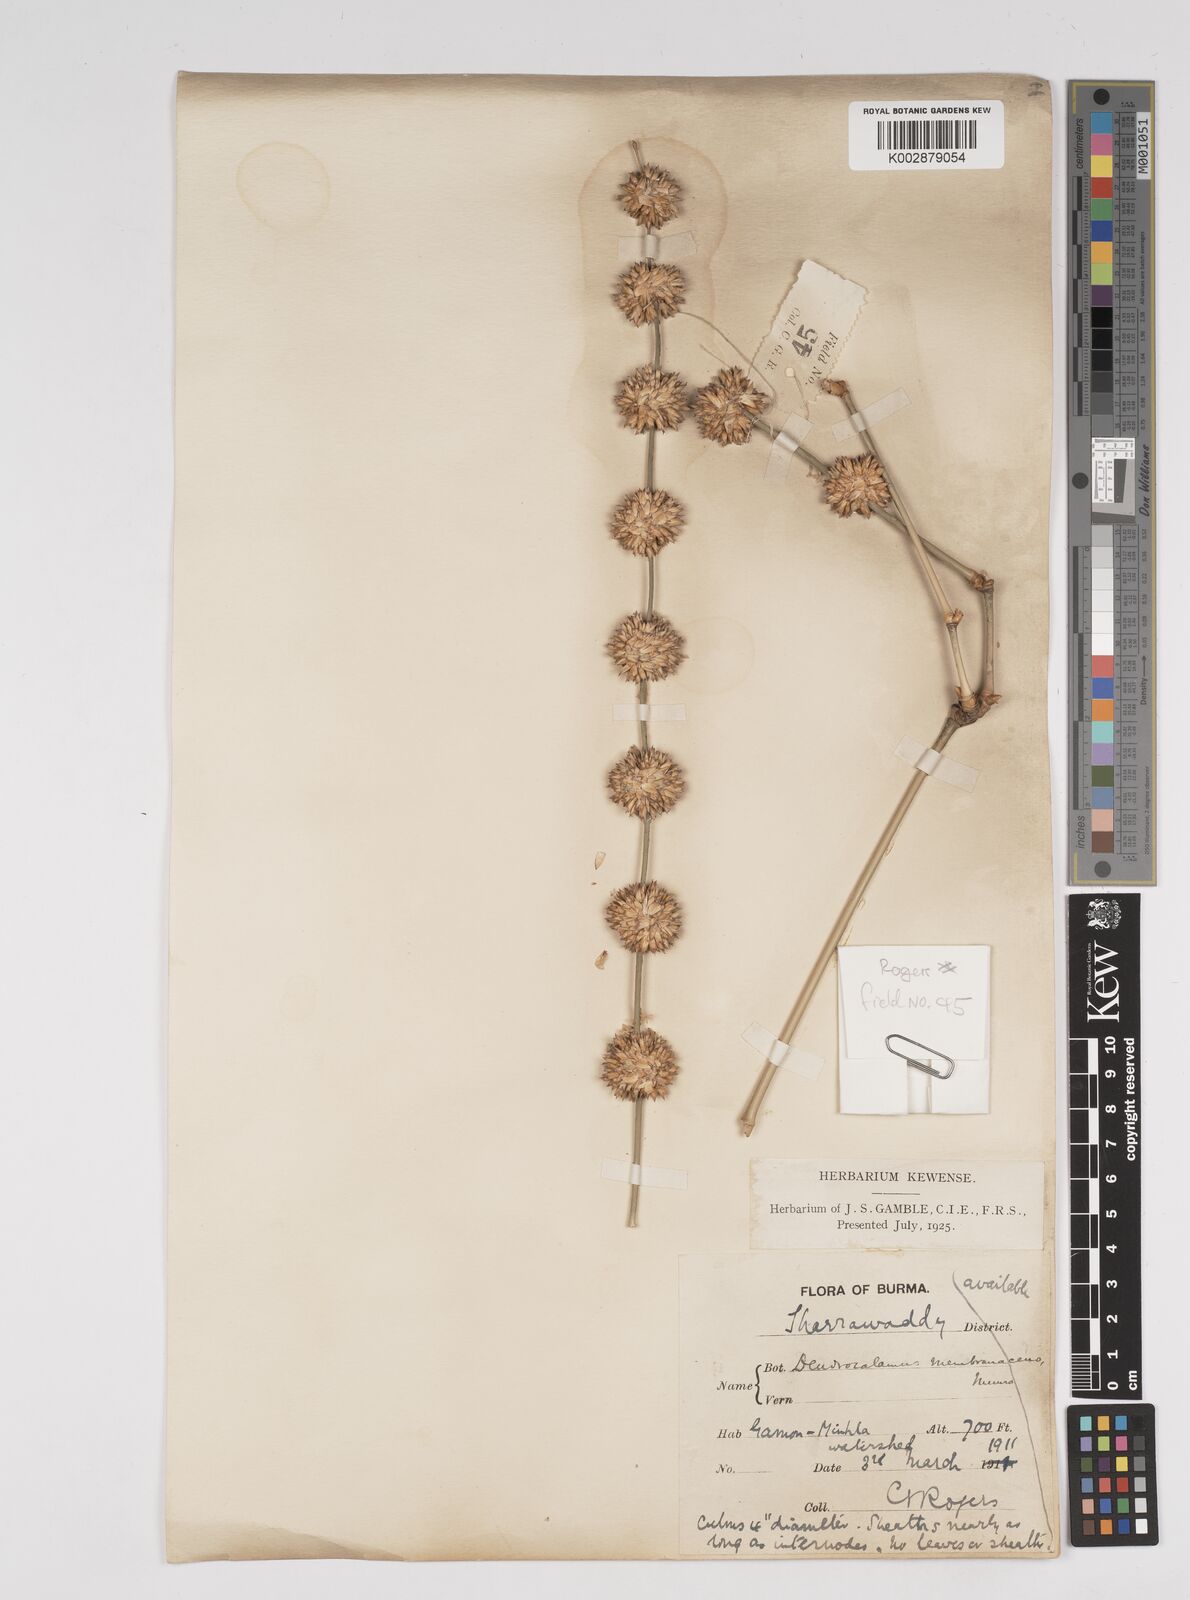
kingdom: Plantae
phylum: Tracheophyta
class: Liliopsida
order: Poales
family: Poaceae
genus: Dendrocalamus
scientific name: Dendrocalamus membranaceus
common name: White bamboo
